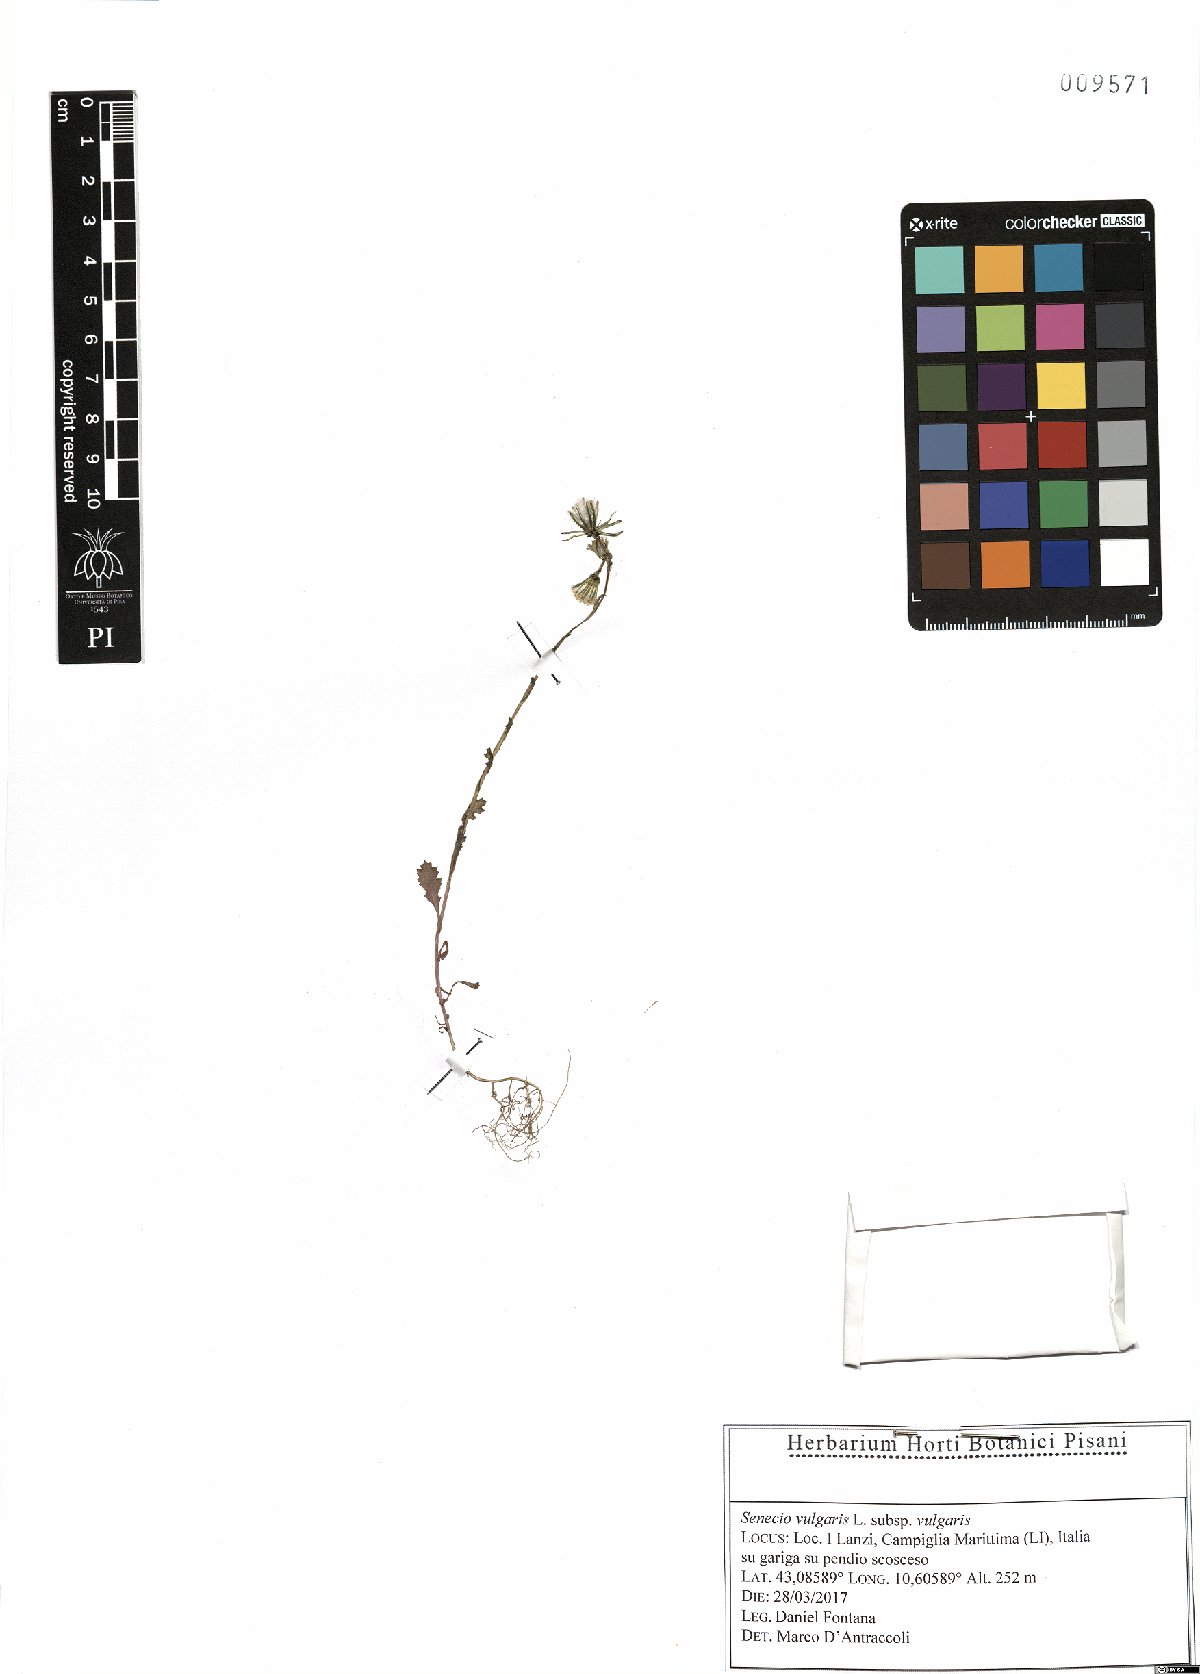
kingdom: Plantae
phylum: Tracheophyta
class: Magnoliopsida
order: Asterales
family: Asteraceae
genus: Senecio
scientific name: Senecio vulgaris
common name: Old-man-in-the-spring
